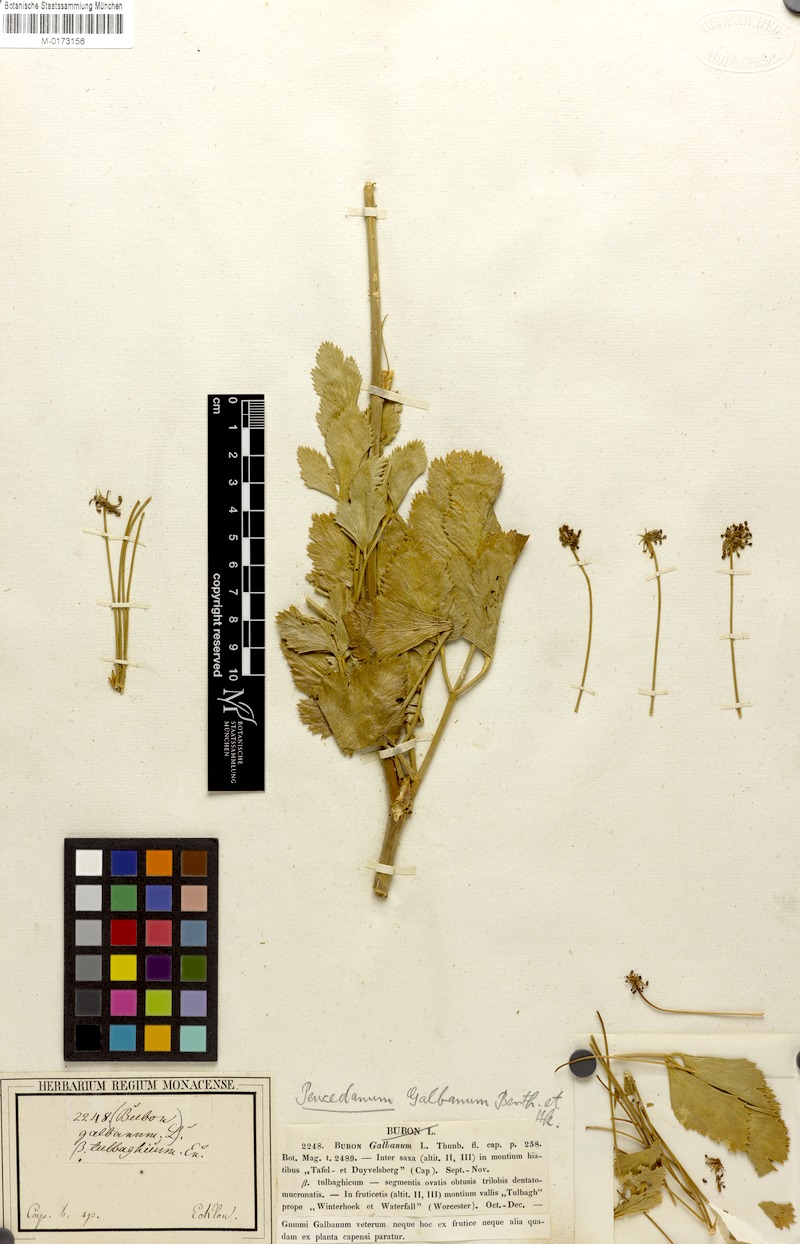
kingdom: Plantae
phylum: Tracheophyta
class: Magnoliopsida
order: Apiales
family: Apiaceae
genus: Notobubon
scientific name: Notobubon galbanum
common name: Blisterbush
